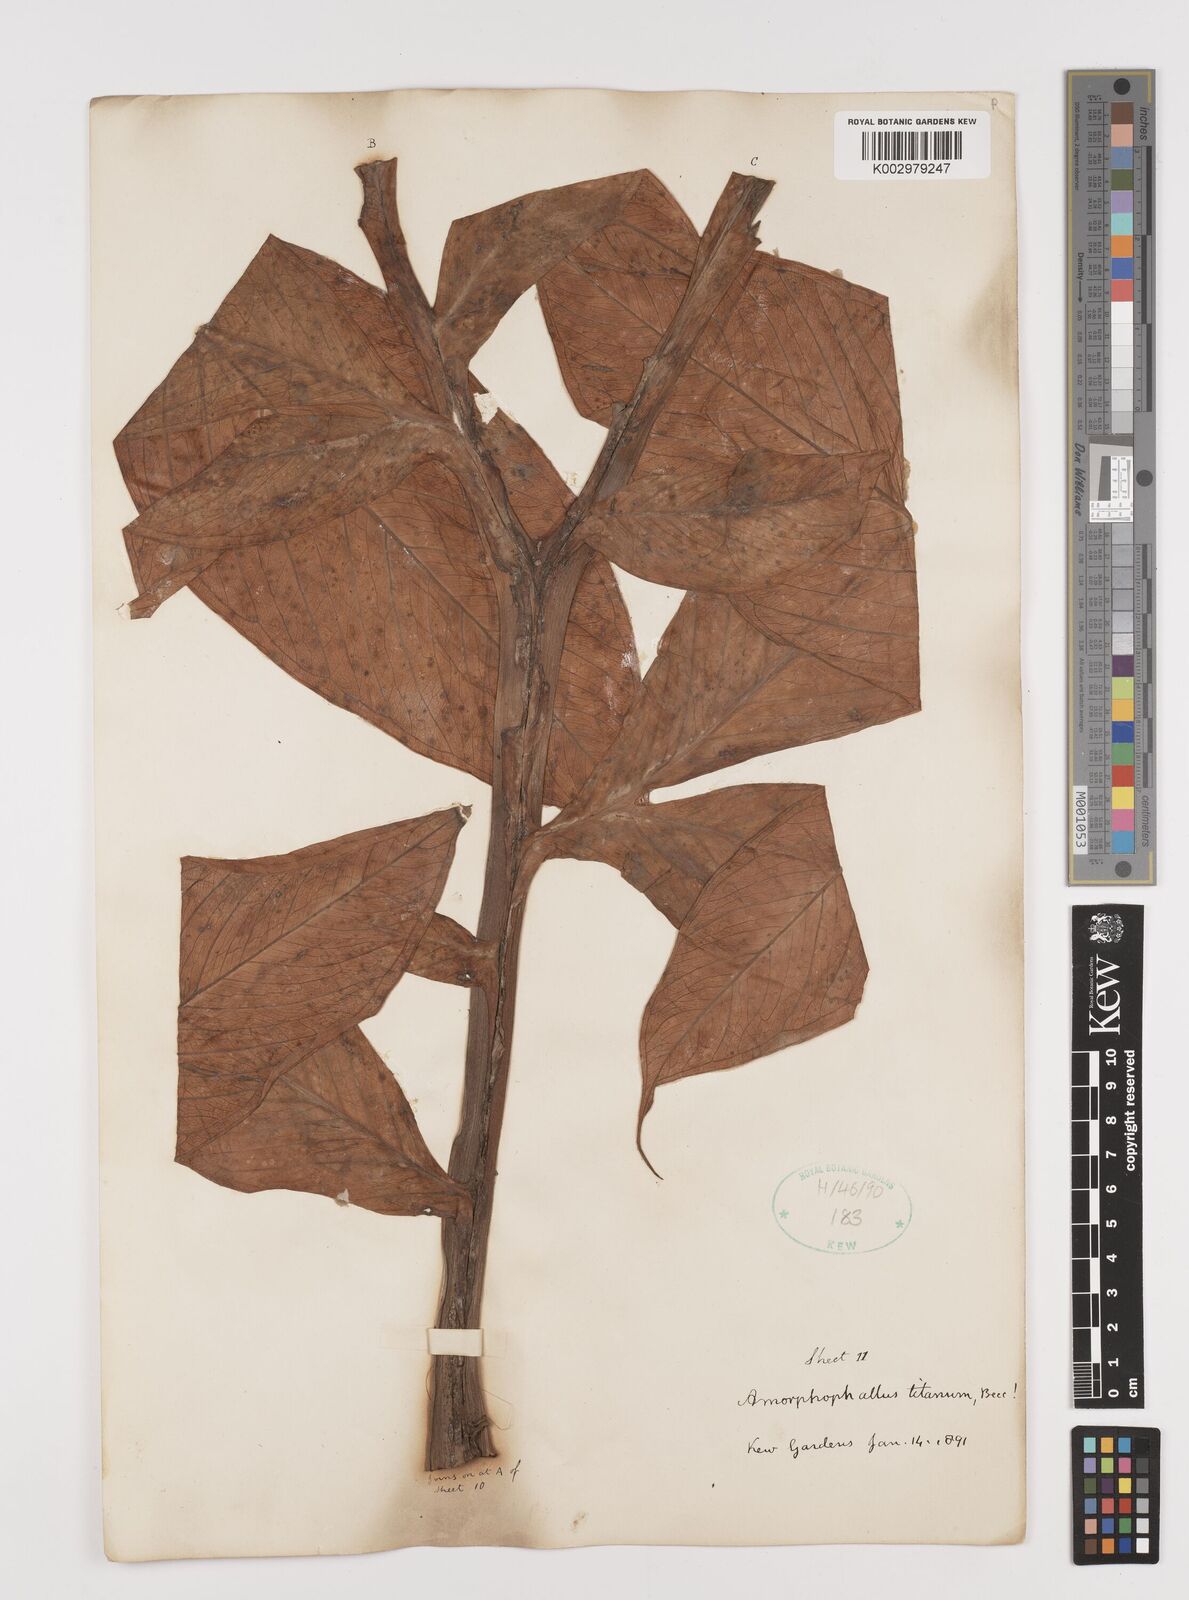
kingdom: Plantae
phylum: Tracheophyta
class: Liliopsida
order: Alismatales
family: Araceae
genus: Amorphophallus
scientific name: Amorphophallus titanum
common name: Titan arum
